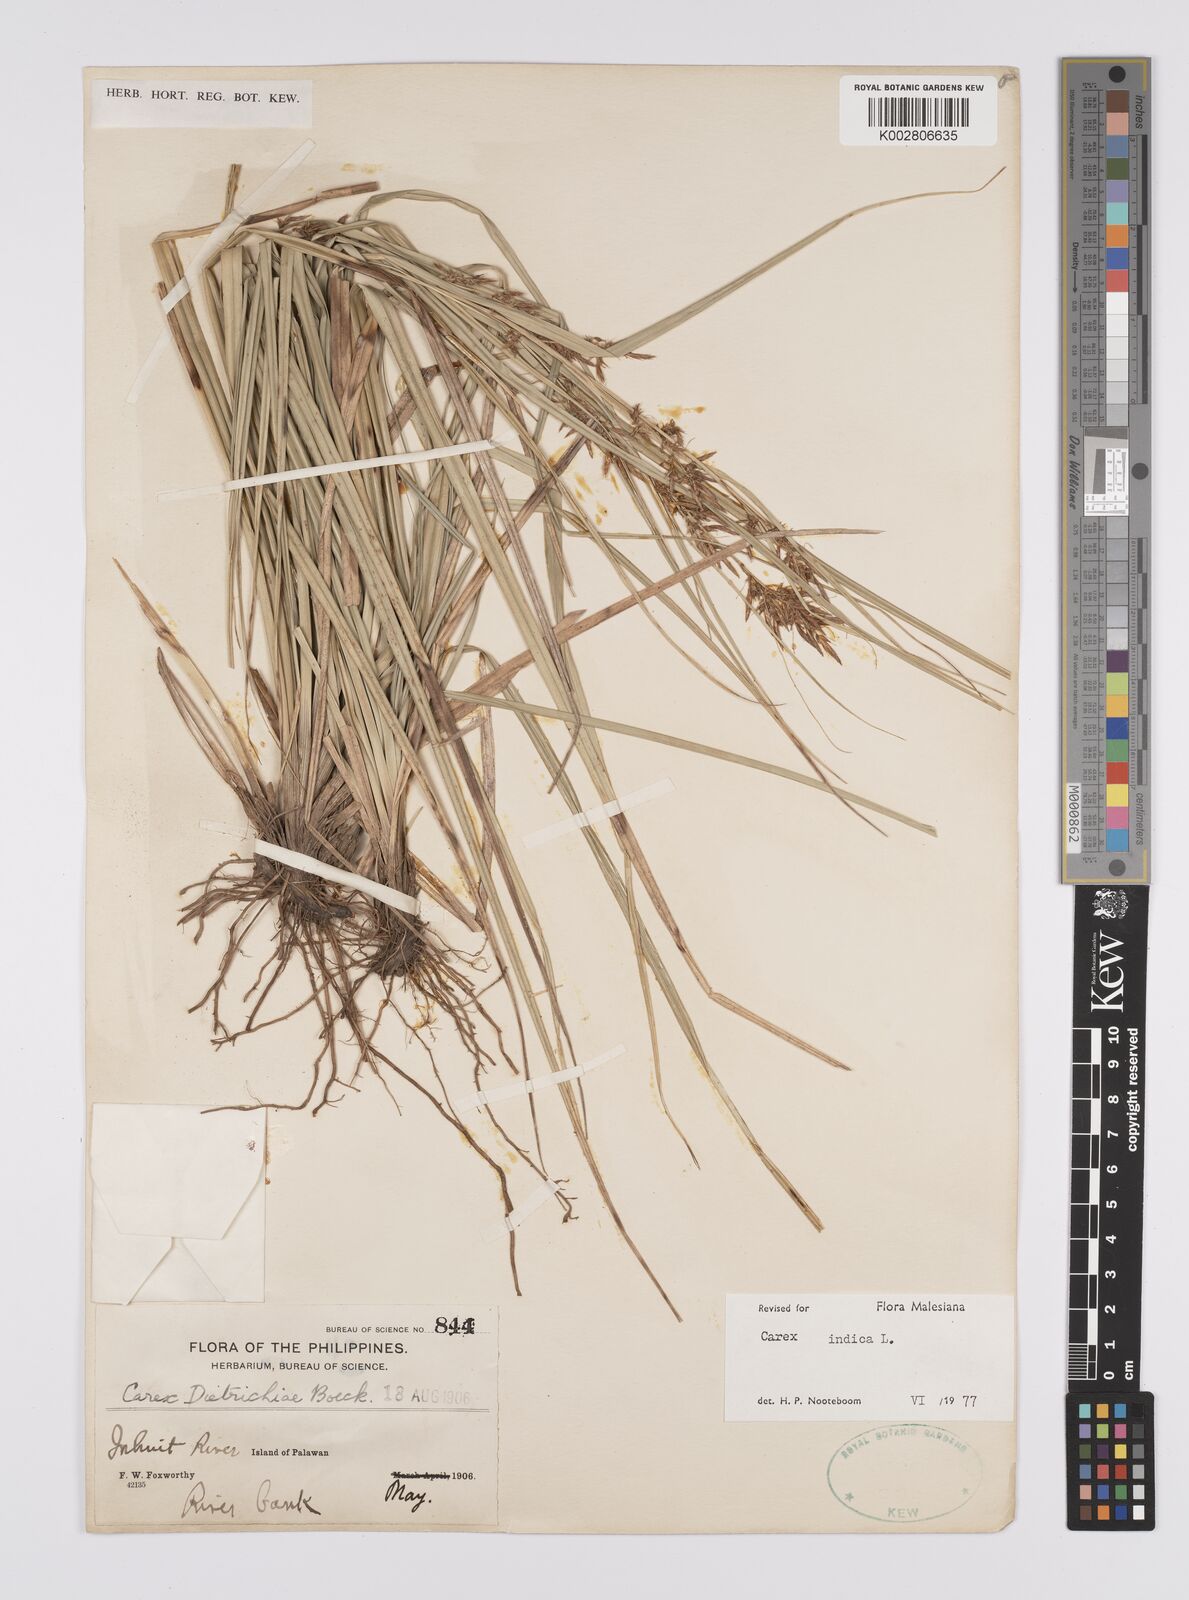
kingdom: Plantae
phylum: Tracheophyta
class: Liliopsida
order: Poales
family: Cyperaceae
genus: Carex
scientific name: Carex indica
